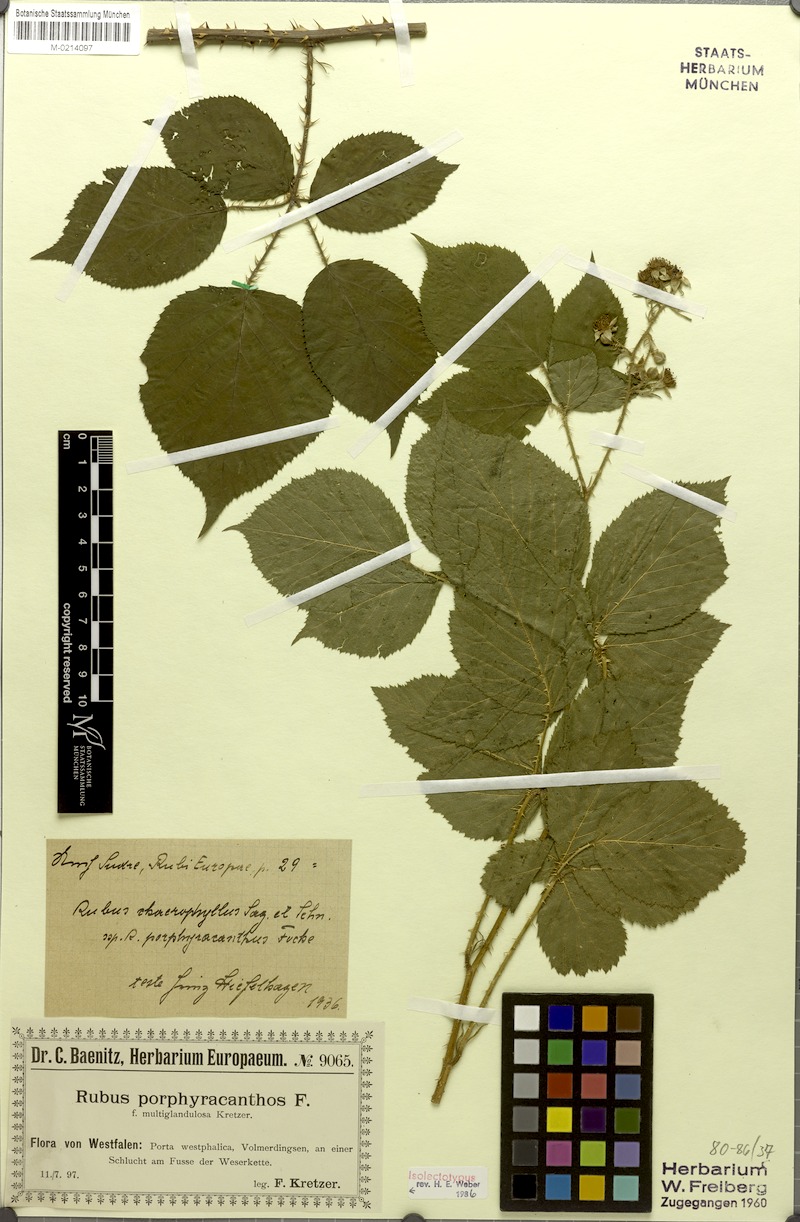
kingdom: Plantae
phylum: Tracheophyta
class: Magnoliopsida
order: Rosales
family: Rosaceae
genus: Rubus
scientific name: Rubus porphyracanthos
